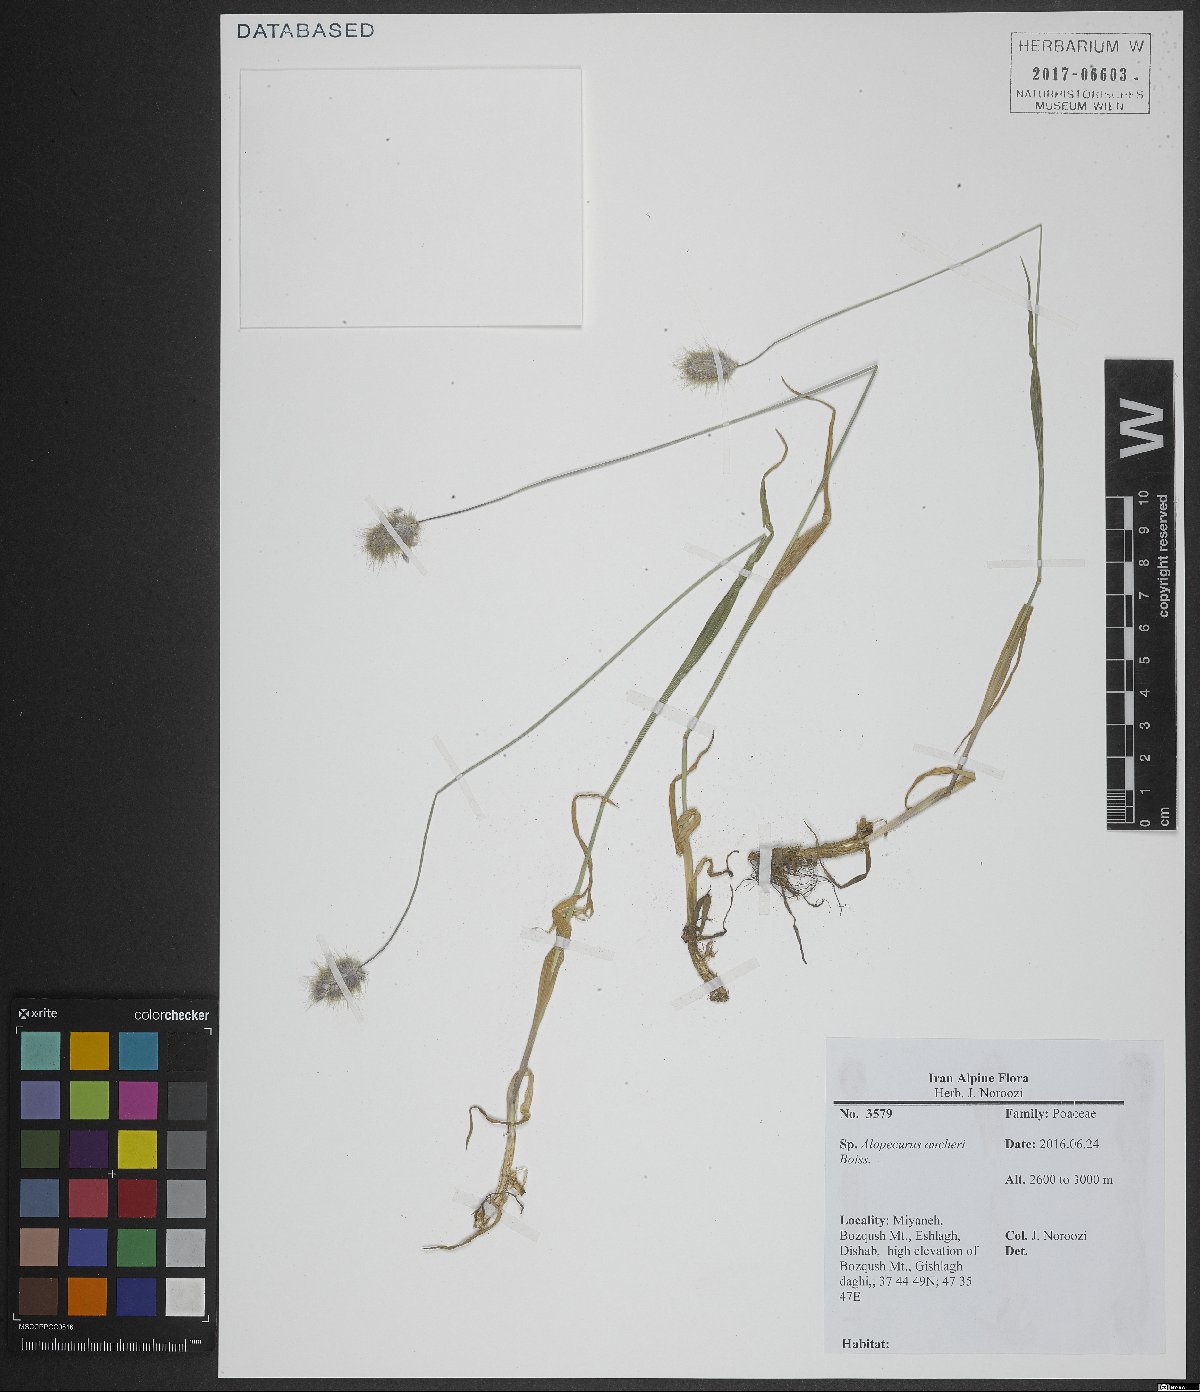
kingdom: Plantae
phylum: Tracheophyta
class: Liliopsida
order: Poales
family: Poaceae
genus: Alopecurus
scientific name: Alopecurus aucheri
